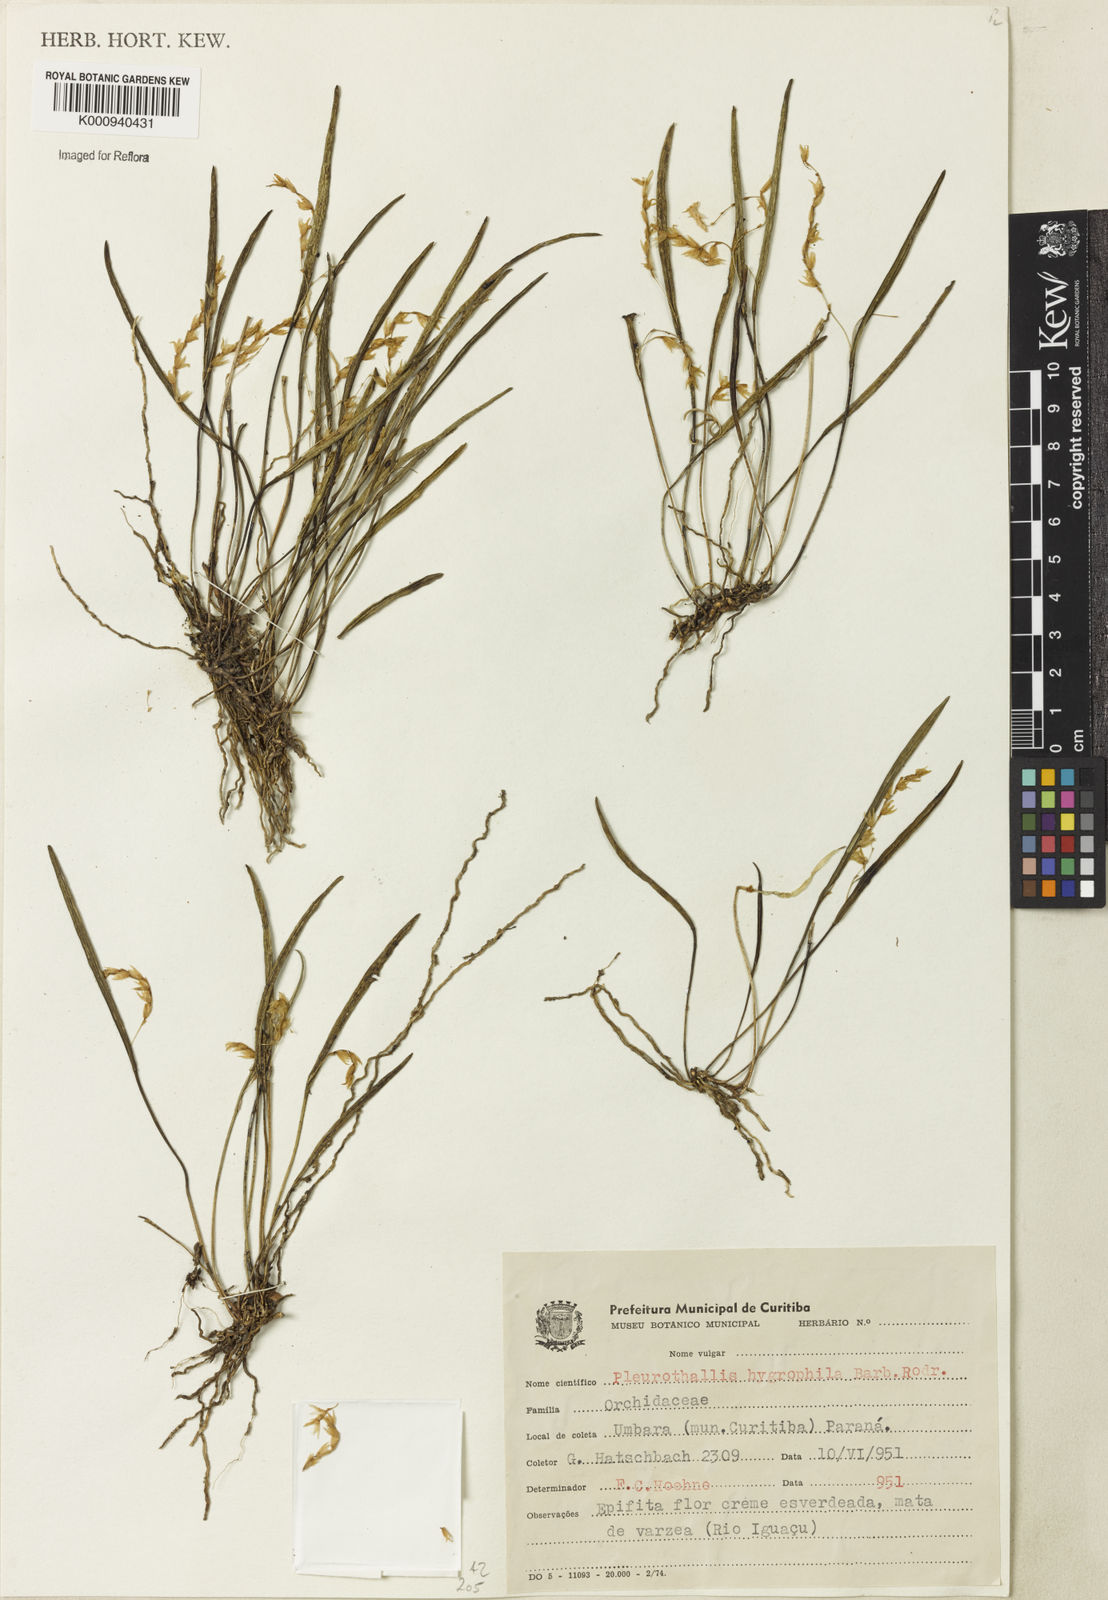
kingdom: Plantae
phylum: Tracheophyta
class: Liliopsida
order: Asparagales
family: Orchidaceae
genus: Acianthera
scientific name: Acianthera hygrophila
